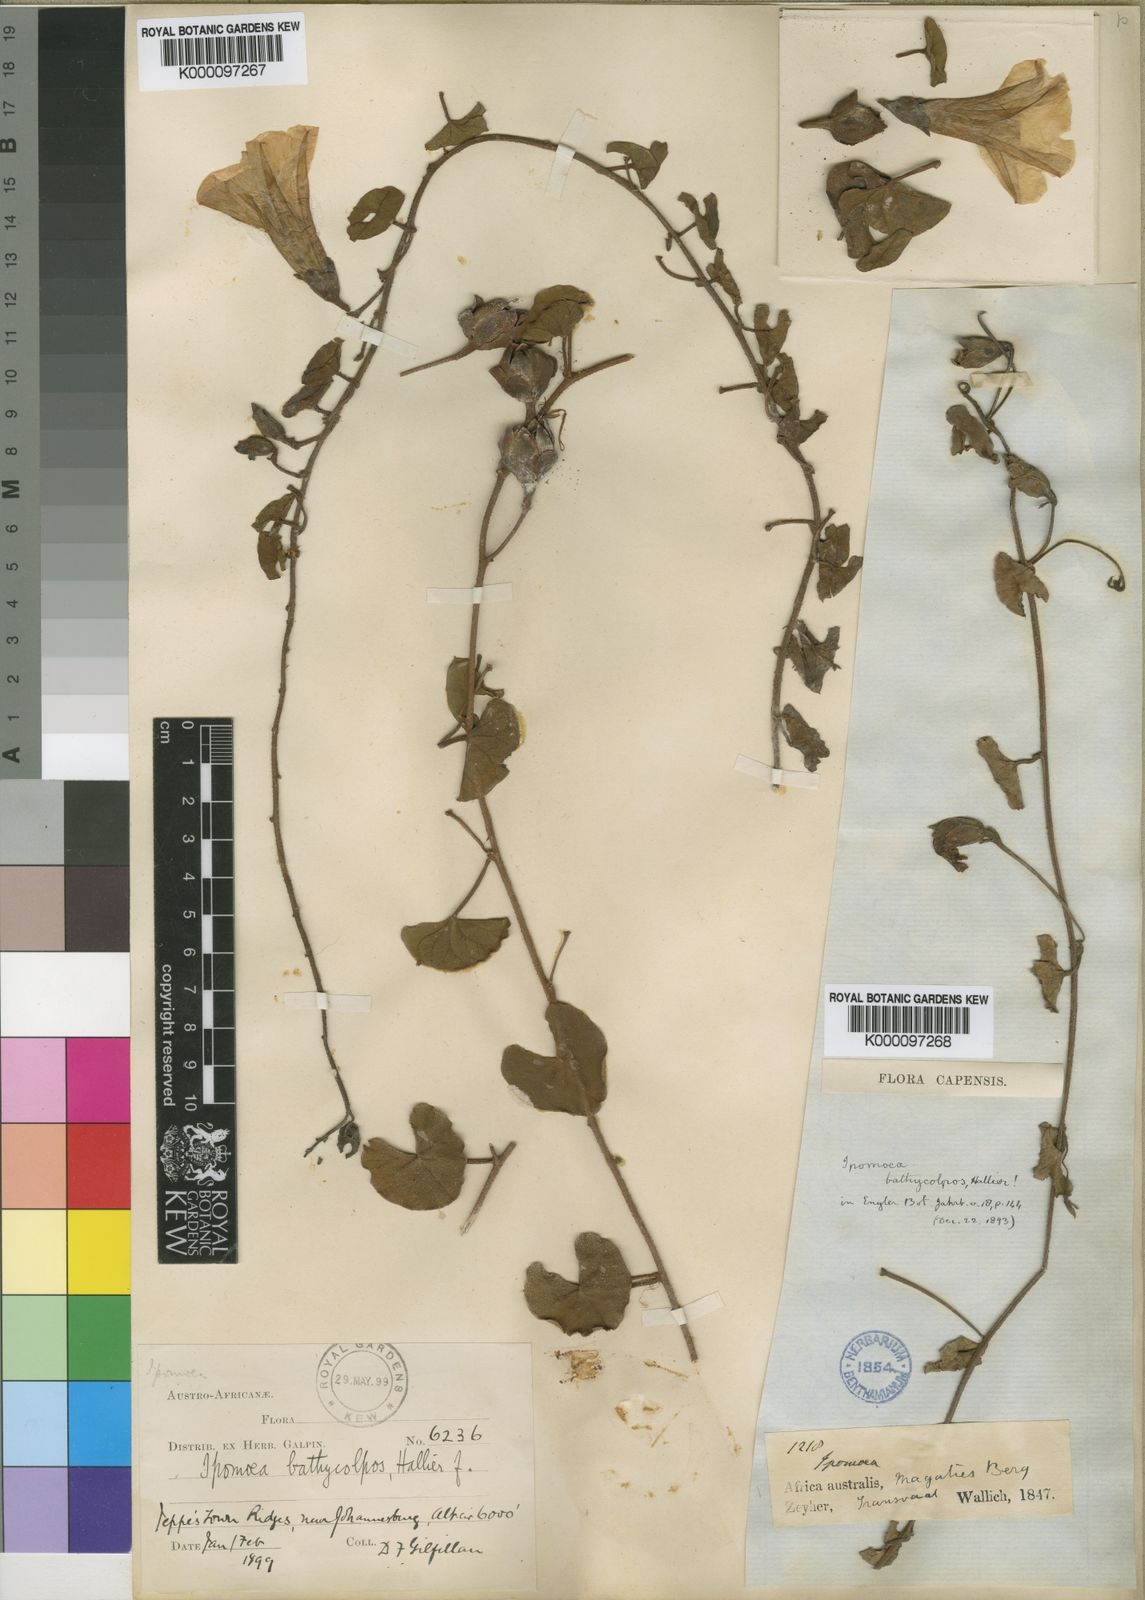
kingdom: Plantae
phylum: Tracheophyta
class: Magnoliopsida
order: Solanales
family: Convolvulaceae
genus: Ipomoea
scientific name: Ipomoea bathycolpos
